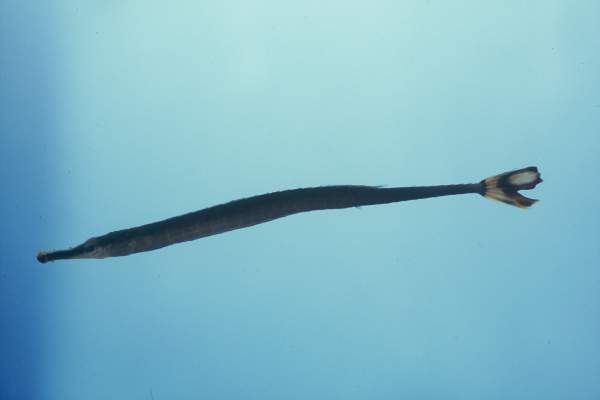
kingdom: Animalia
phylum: Chordata
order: Syngnathiformes
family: Syngnathidae
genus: Doryrhamphus
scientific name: Doryrhamphus excisus
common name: Bluestripe pipefish
